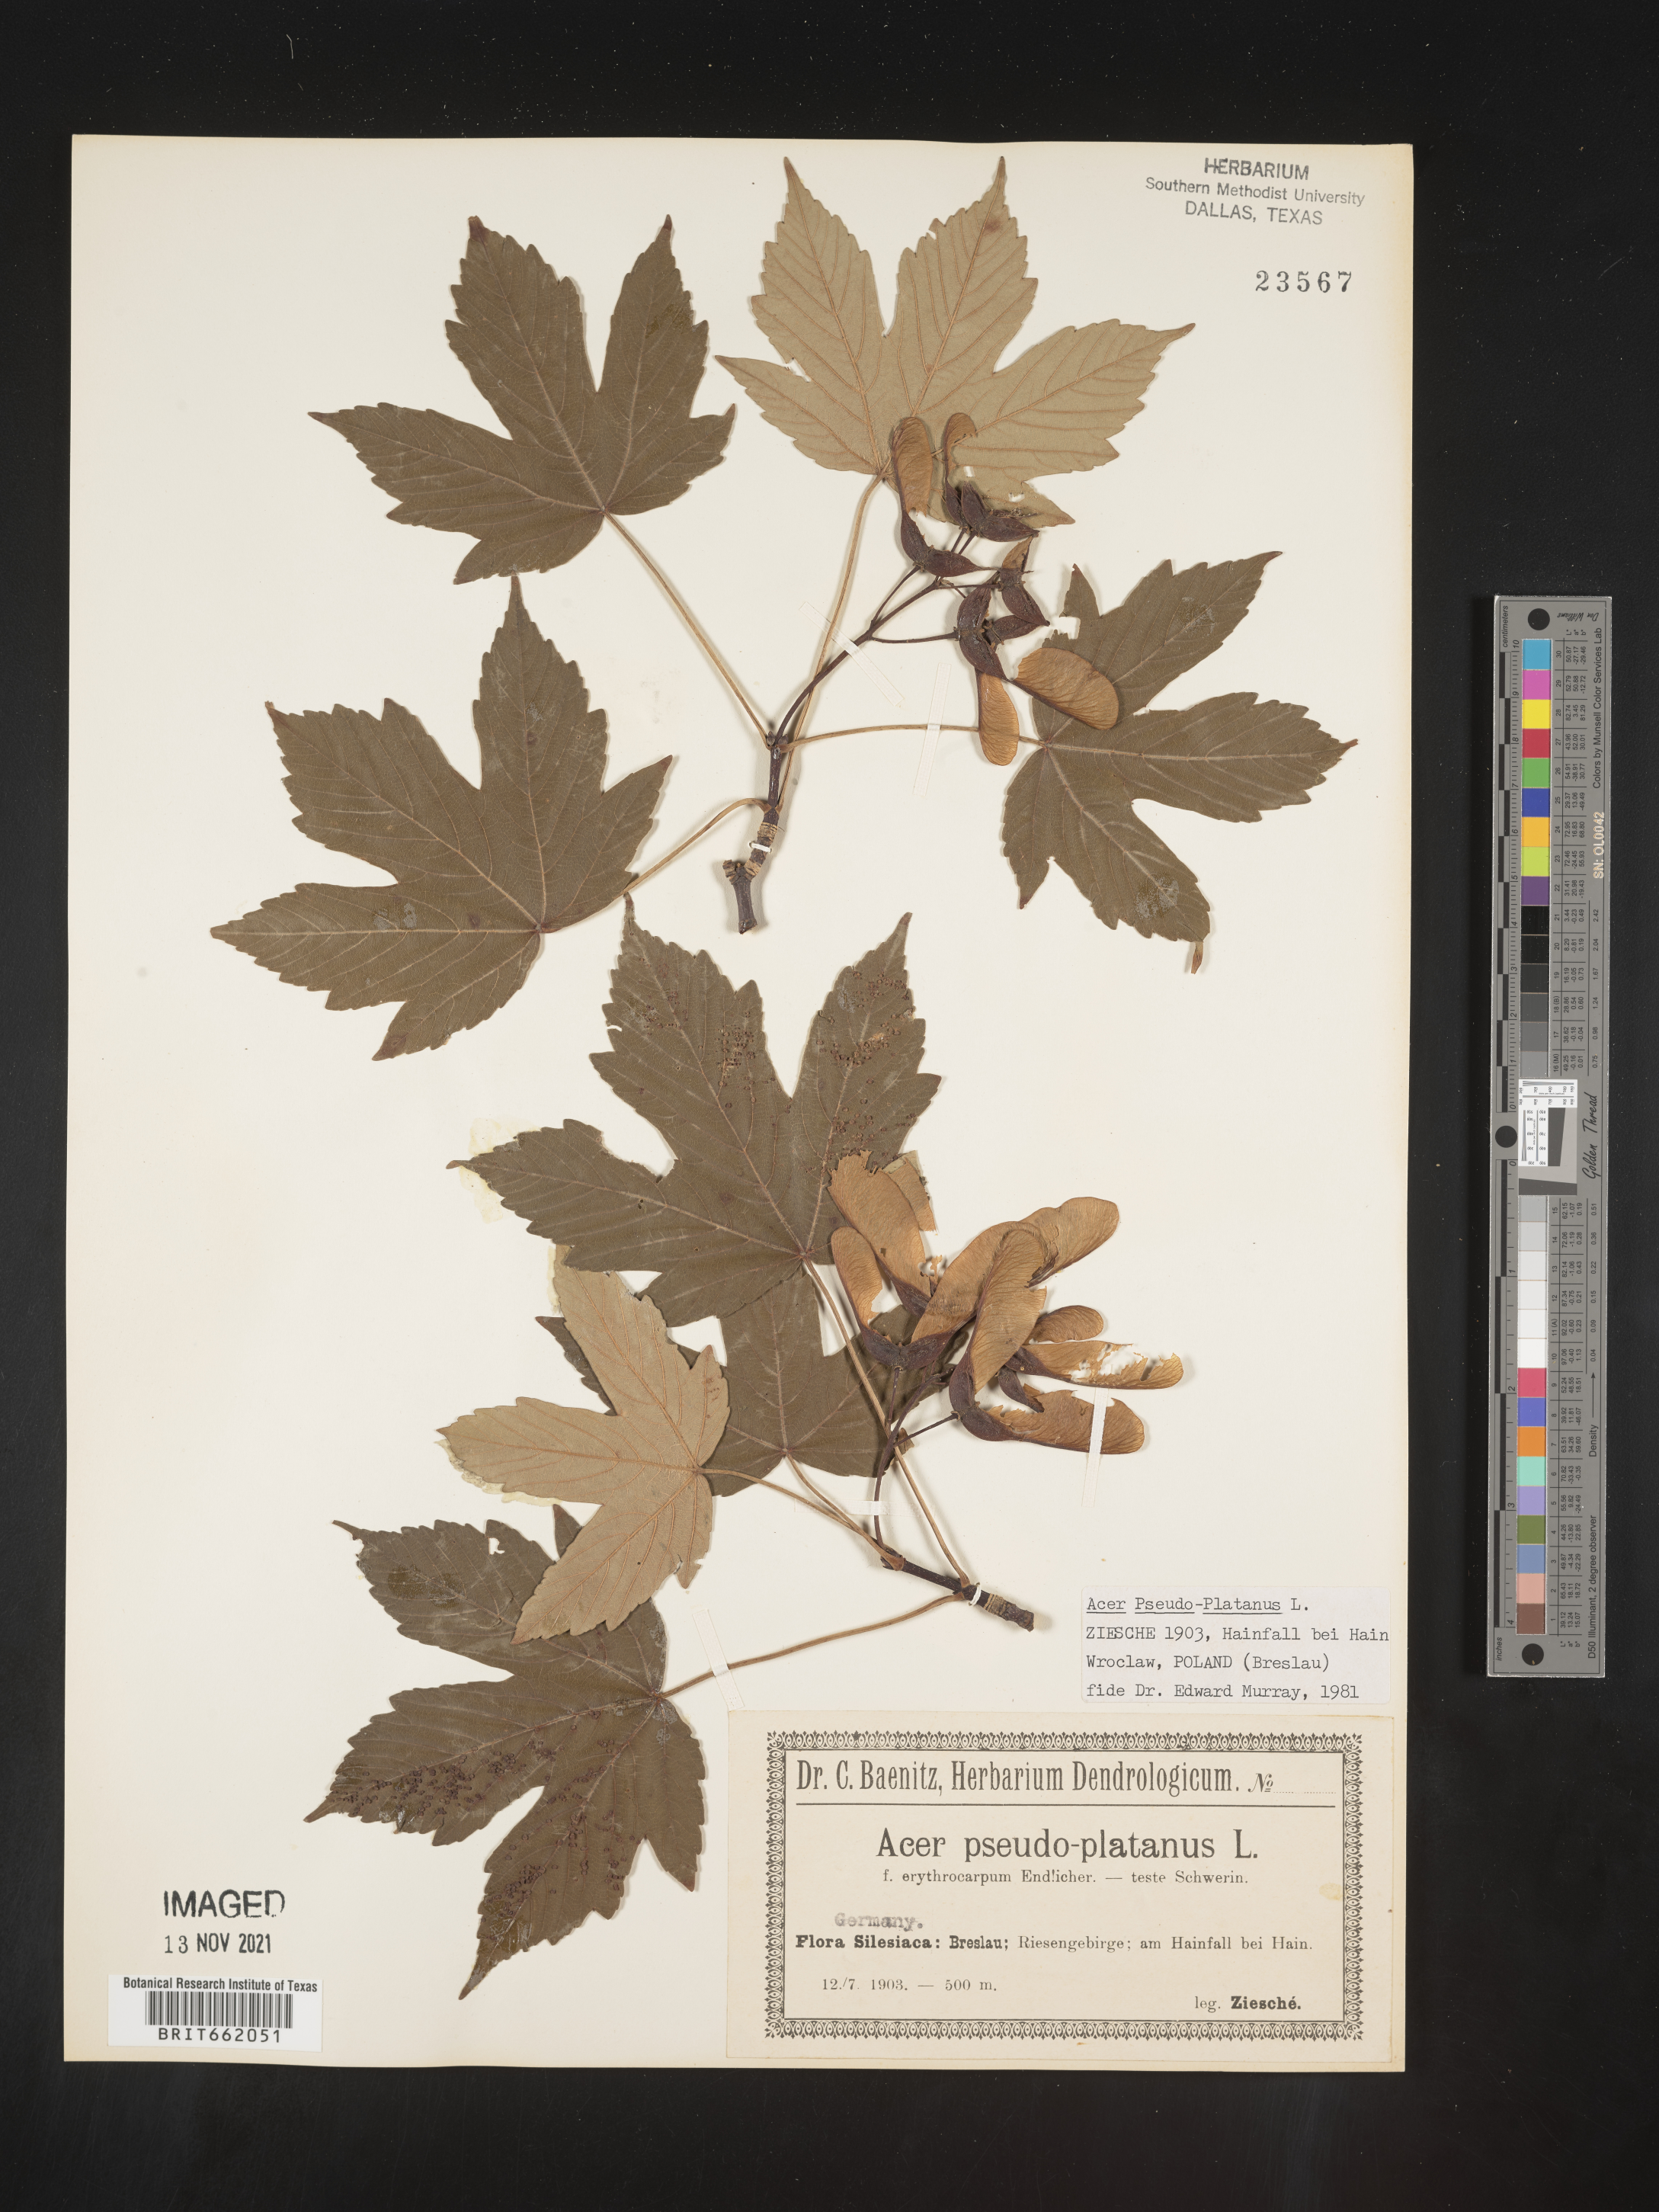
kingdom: Plantae
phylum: Tracheophyta
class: Magnoliopsida
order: Sapindales
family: Sapindaceae
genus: Acer
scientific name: Acer
